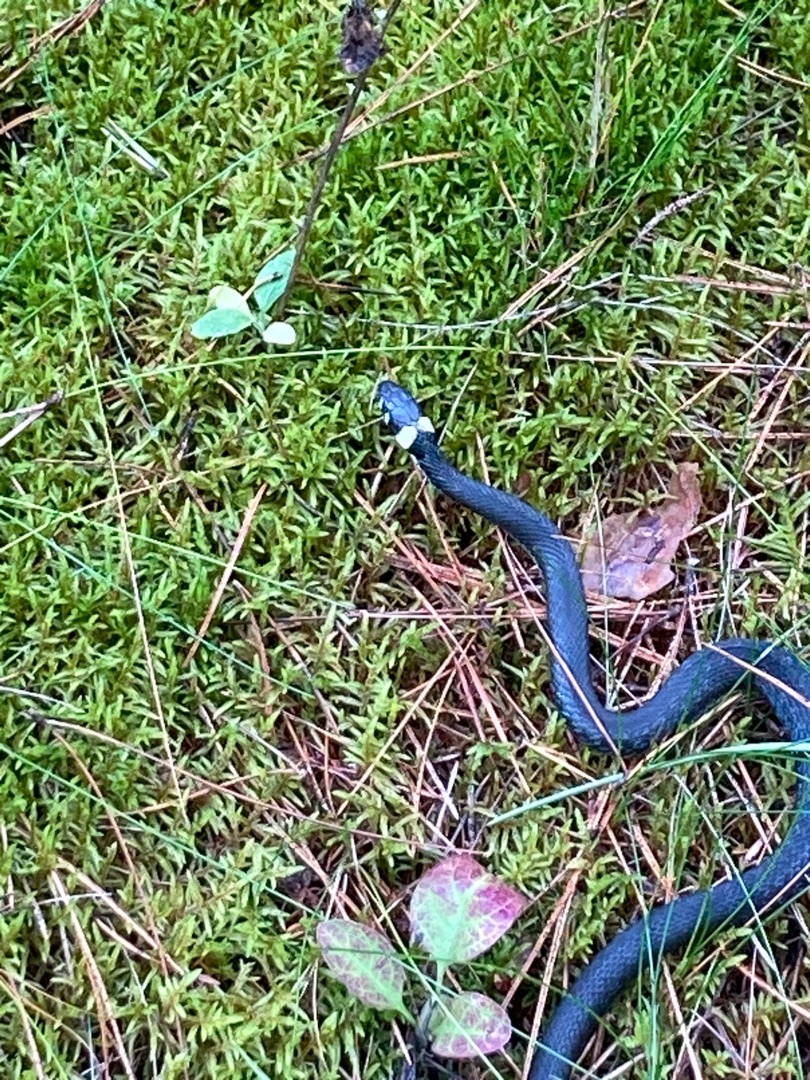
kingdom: Animalia
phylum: Chordata
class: Squamata
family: Colubridae
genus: Natrix
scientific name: Natrix natrix
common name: Snog
